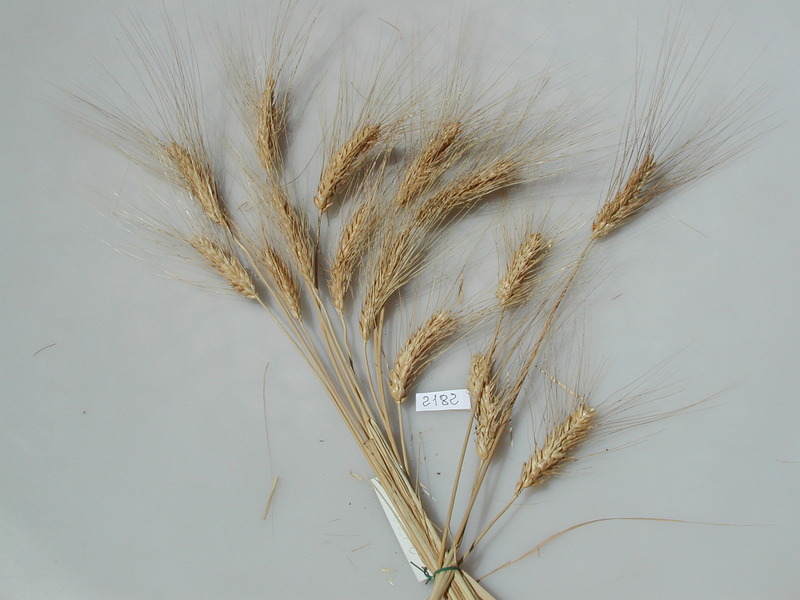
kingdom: Plantae
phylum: Tracheophyta
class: Liliopsida
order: Poales
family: Poaceae
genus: Triticum
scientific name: Triticum turgidum
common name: Wheat
